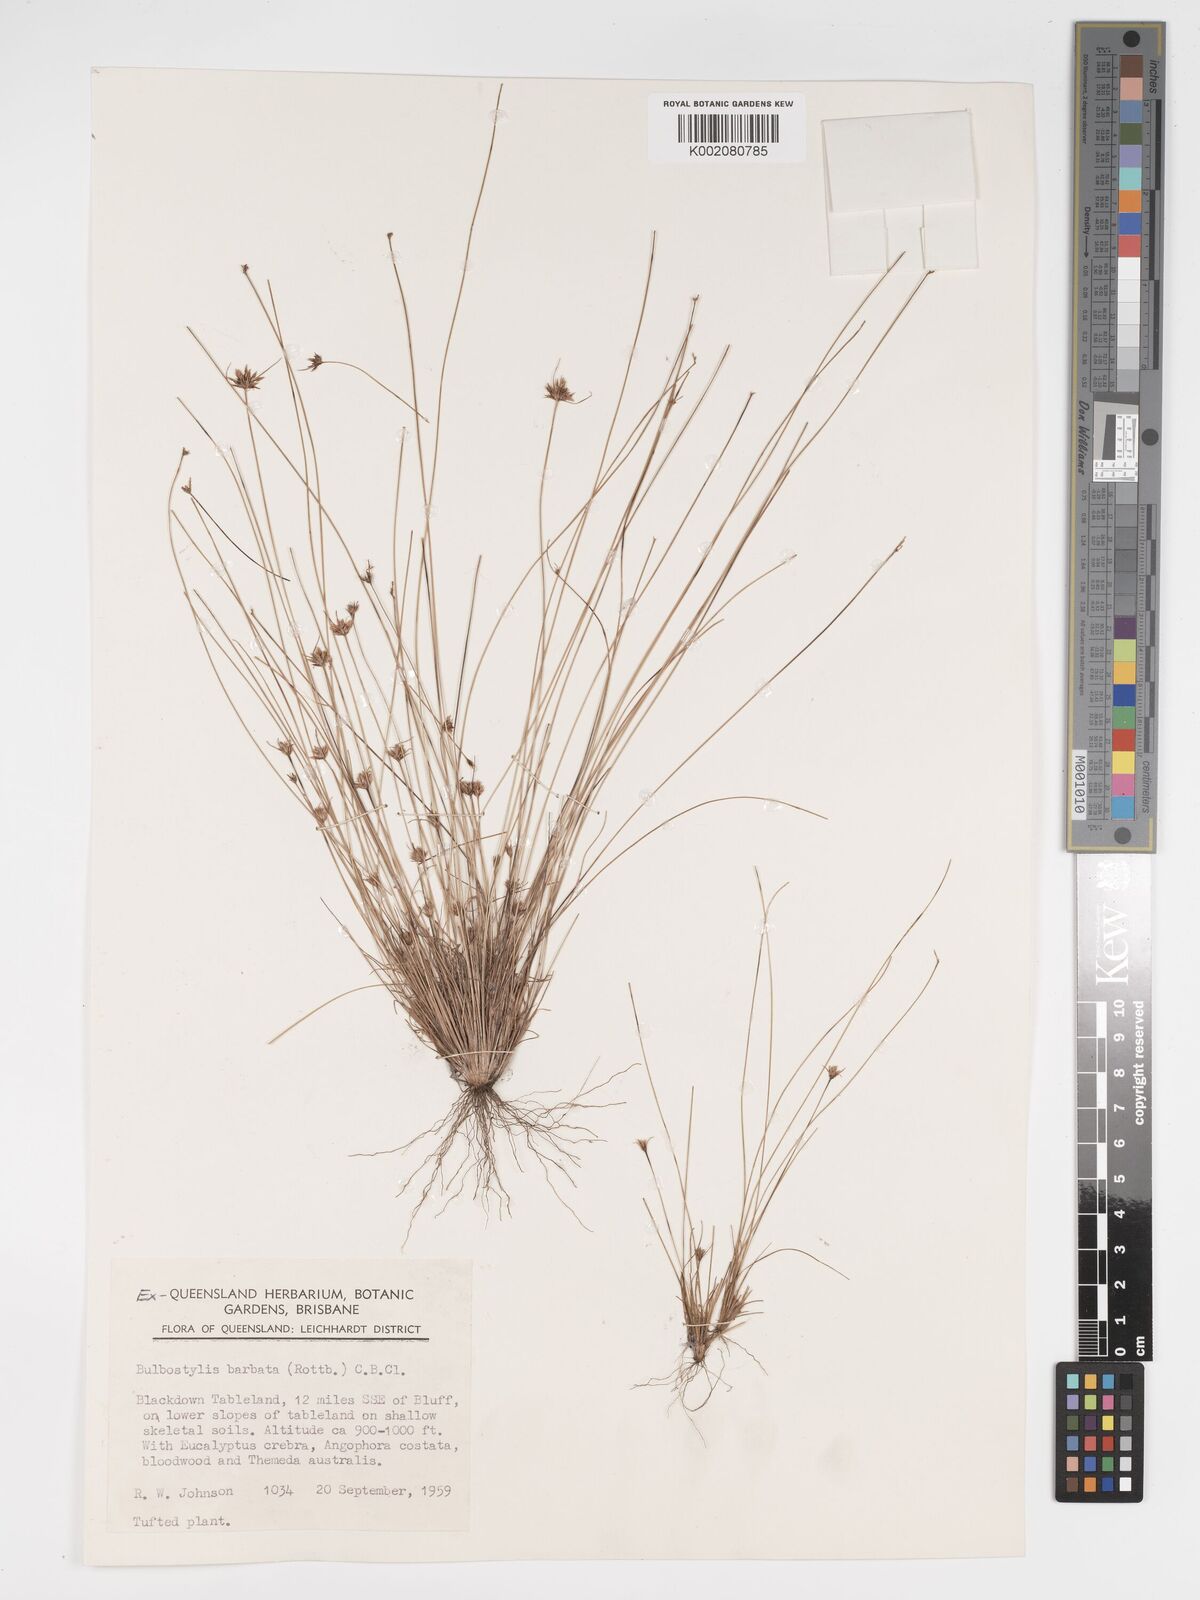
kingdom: Plantae
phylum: Tracheophyta
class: Liliopsida
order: Poales
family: Cyperaceae
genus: Bulbostylis
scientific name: Bulbostylis barbata
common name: Watergrass
